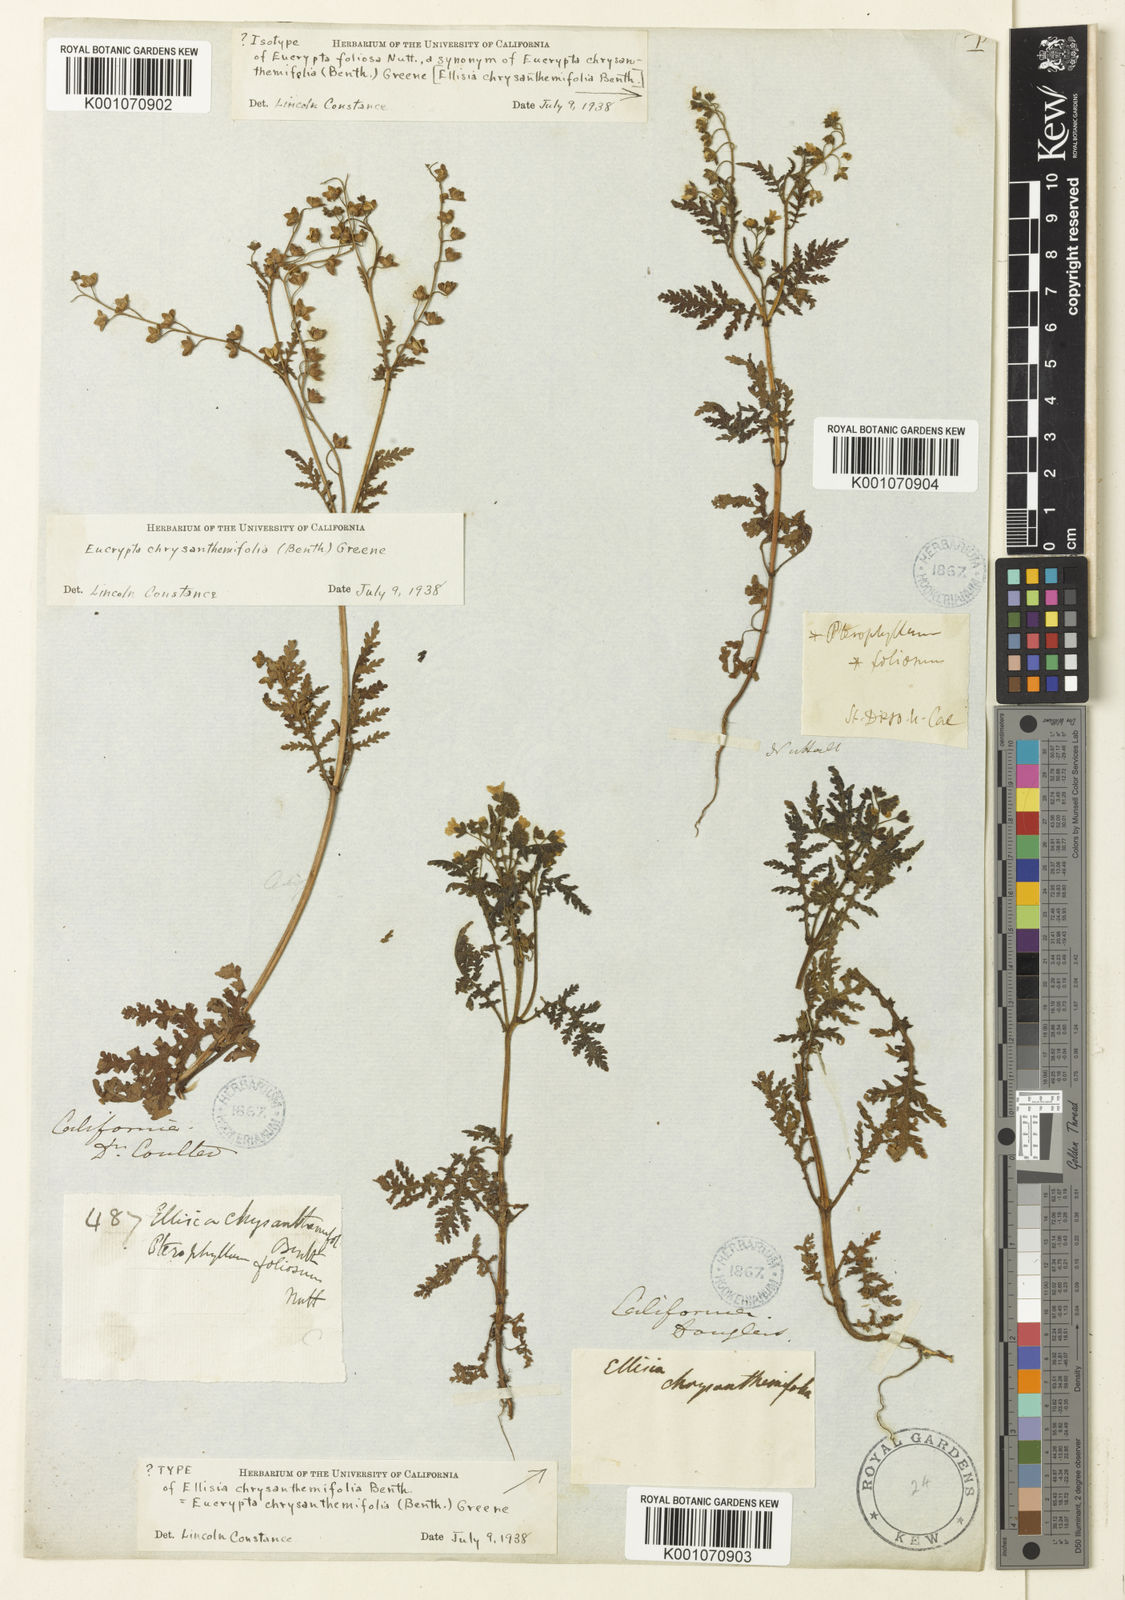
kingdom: Plantae
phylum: Tracheophyta
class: Magnoliopsida
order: Boraginales
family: Hydrophyllaceae
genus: Eucrypta
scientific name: Eucrypta chrysanthemifolia
